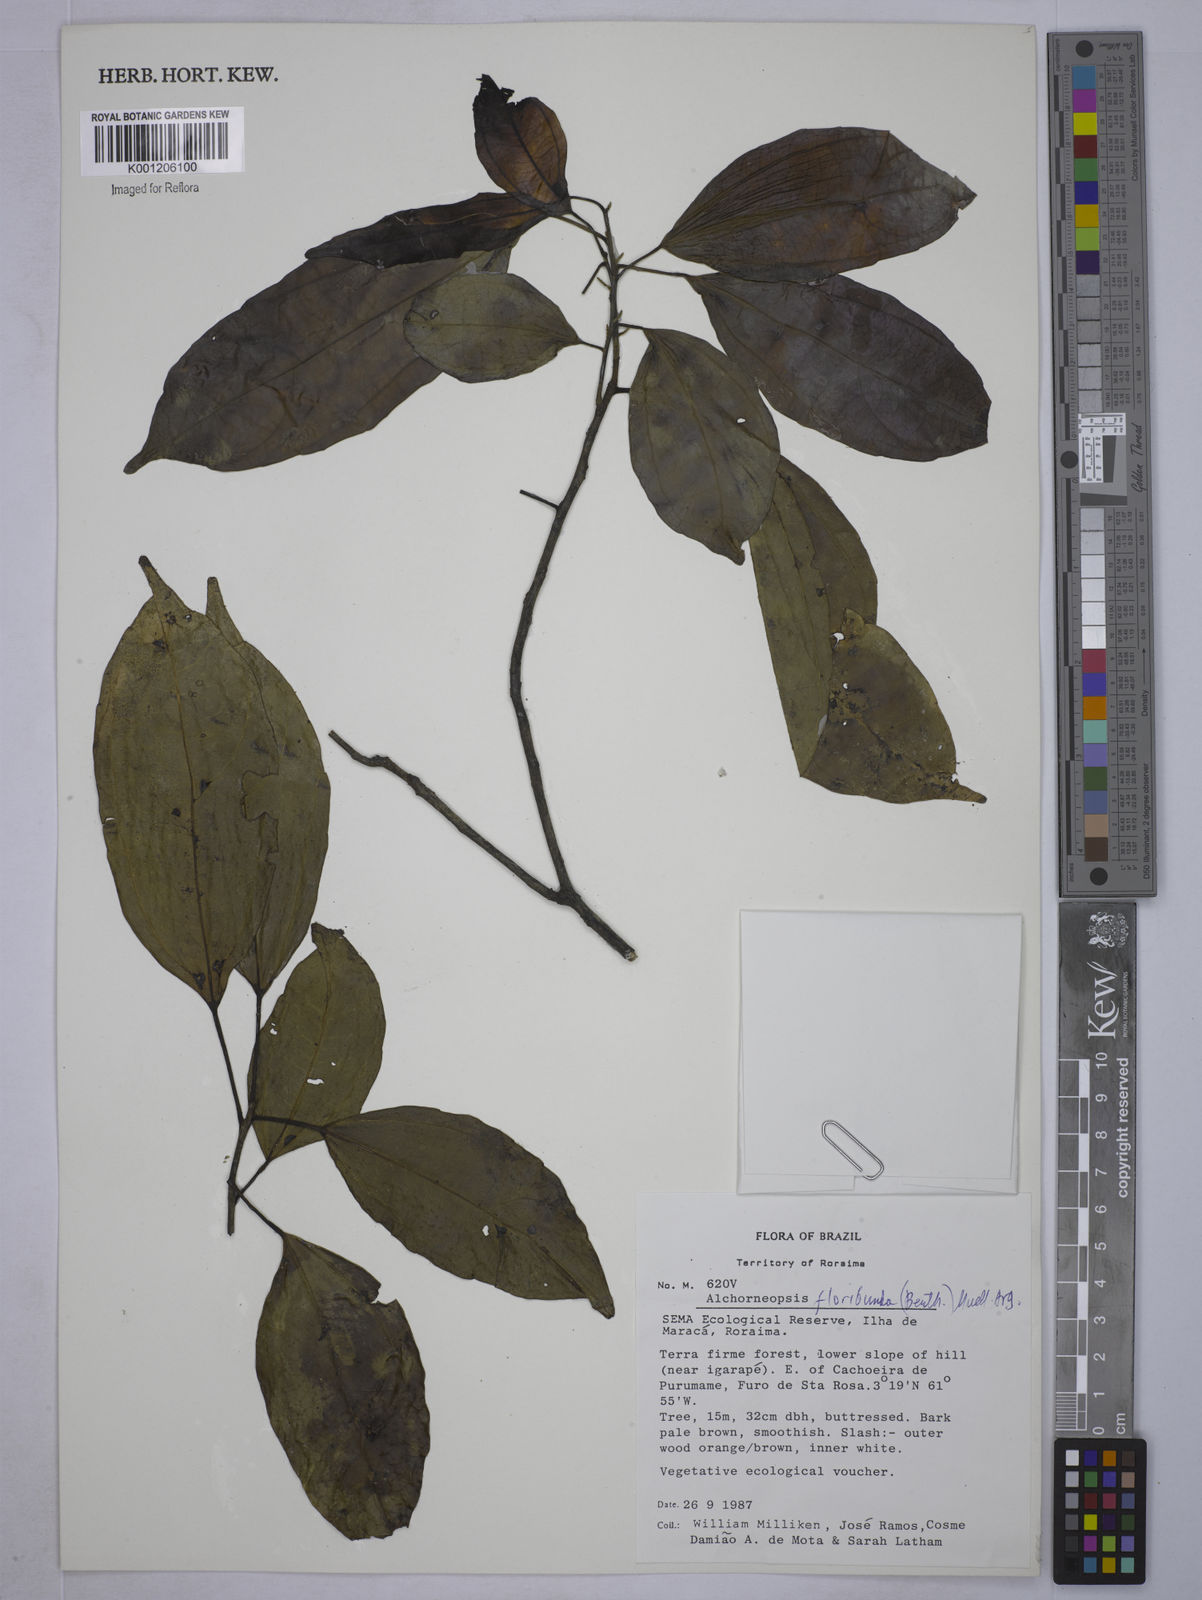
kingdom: Plantae
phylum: Tracheophyta
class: Magnoliopsida
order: Malpighiales
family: Euphorbiaceae
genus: Alchorneopsis
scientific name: Alchorneopsis
